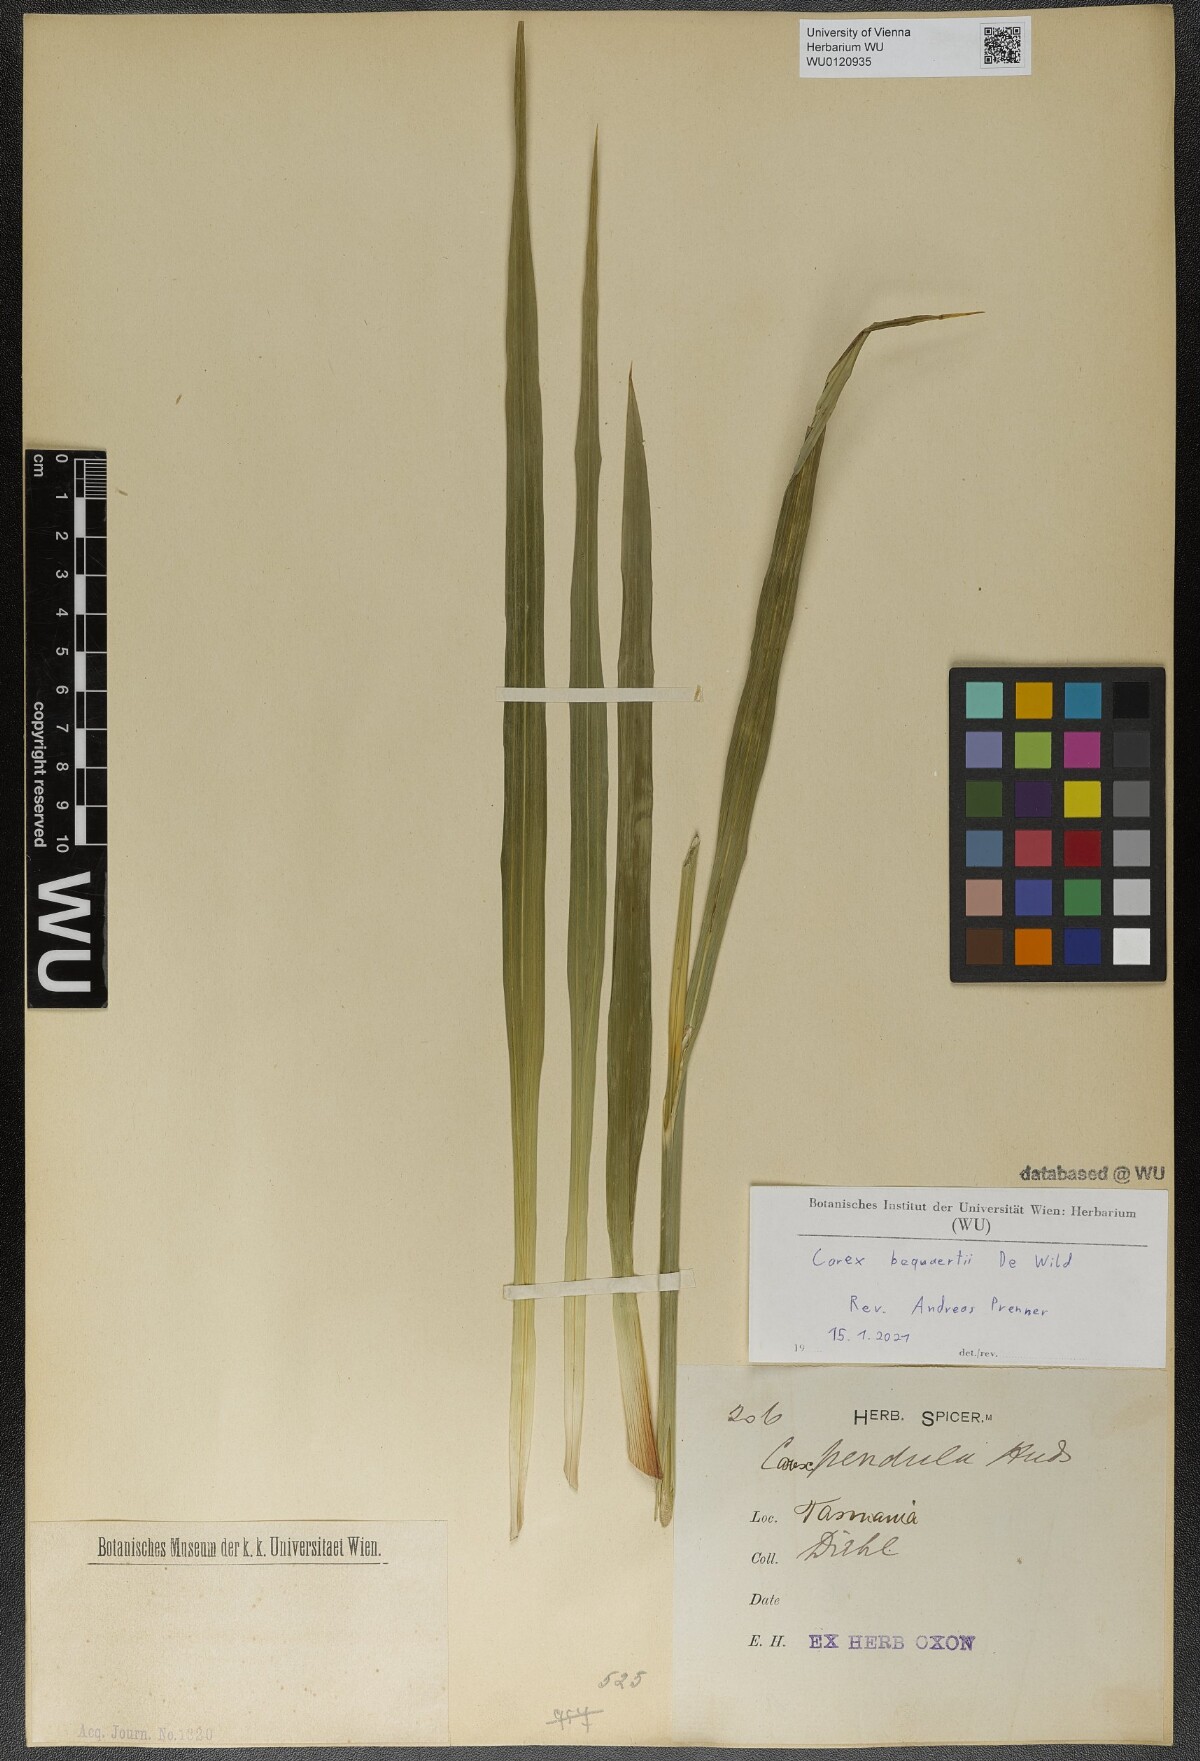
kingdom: Plantae
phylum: Tracheophyta
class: Liliopsida
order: Poales
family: Cyperaceae
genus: Carex
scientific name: Carex bequaertii
